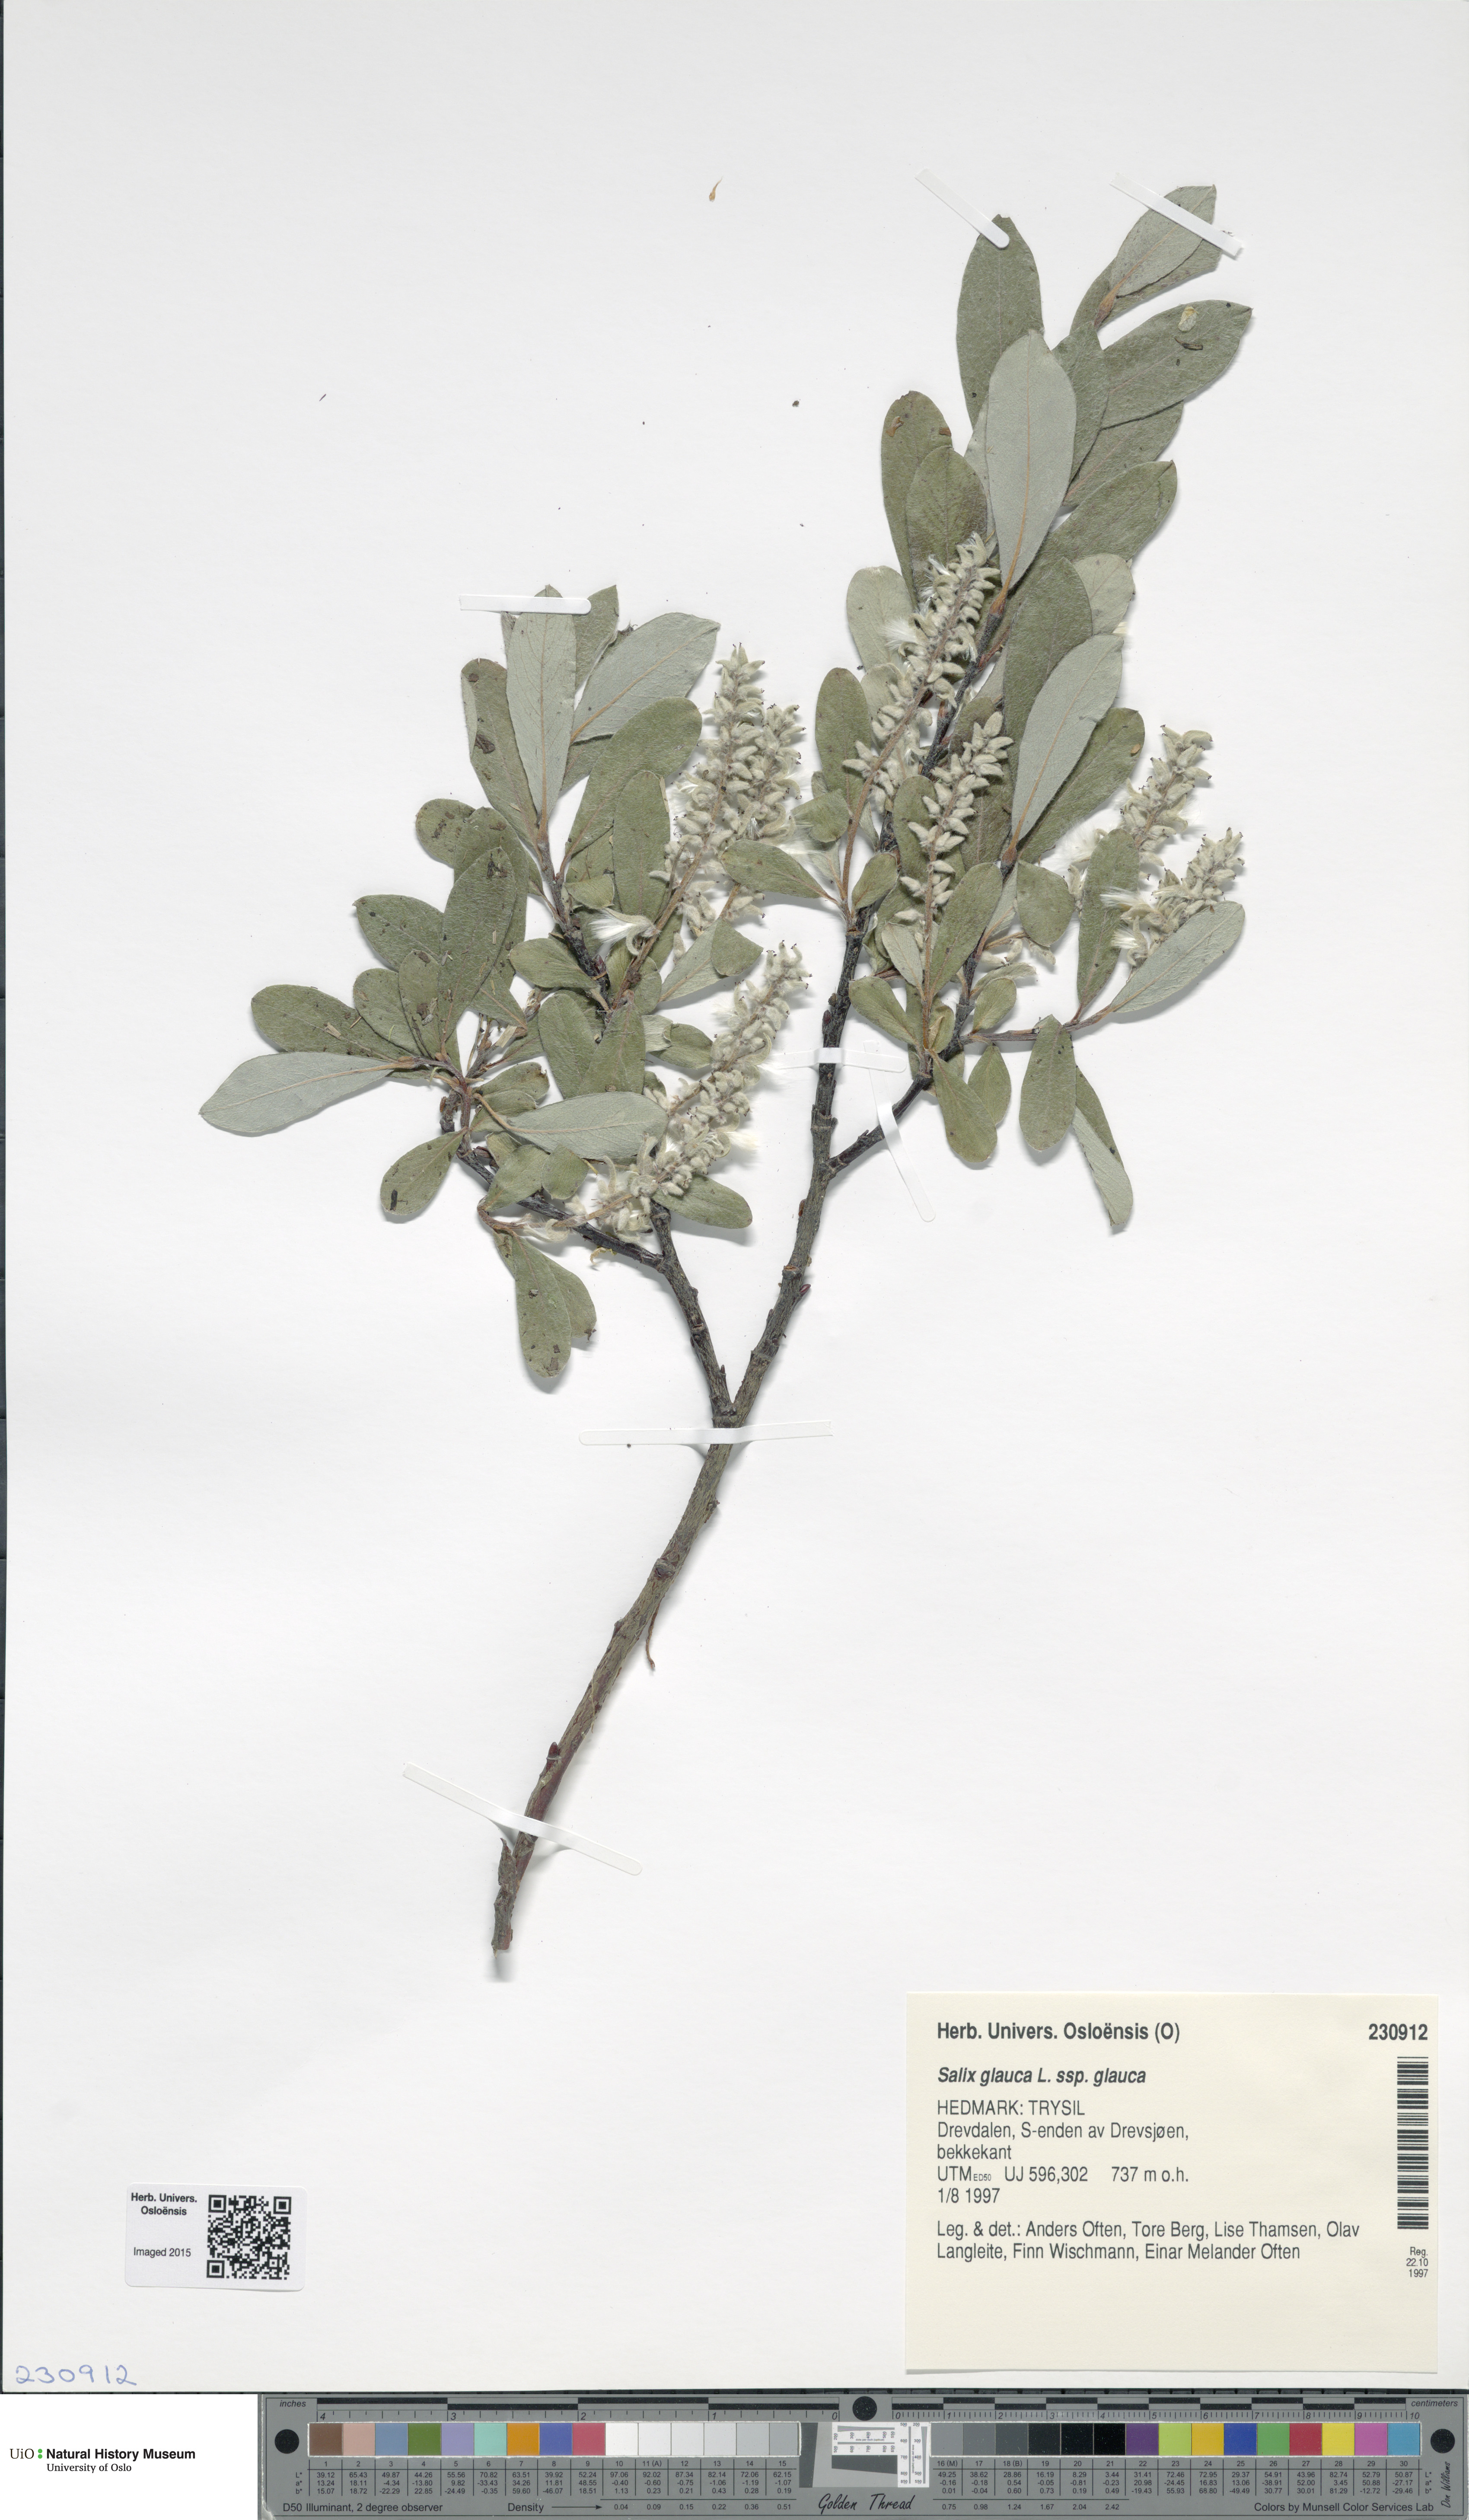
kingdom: Plantae
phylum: Tracheophyta
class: Magnoliopsida
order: Malpighiales
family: Salicaceae
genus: Salix
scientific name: Salix glauca
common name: Glaucous willow
